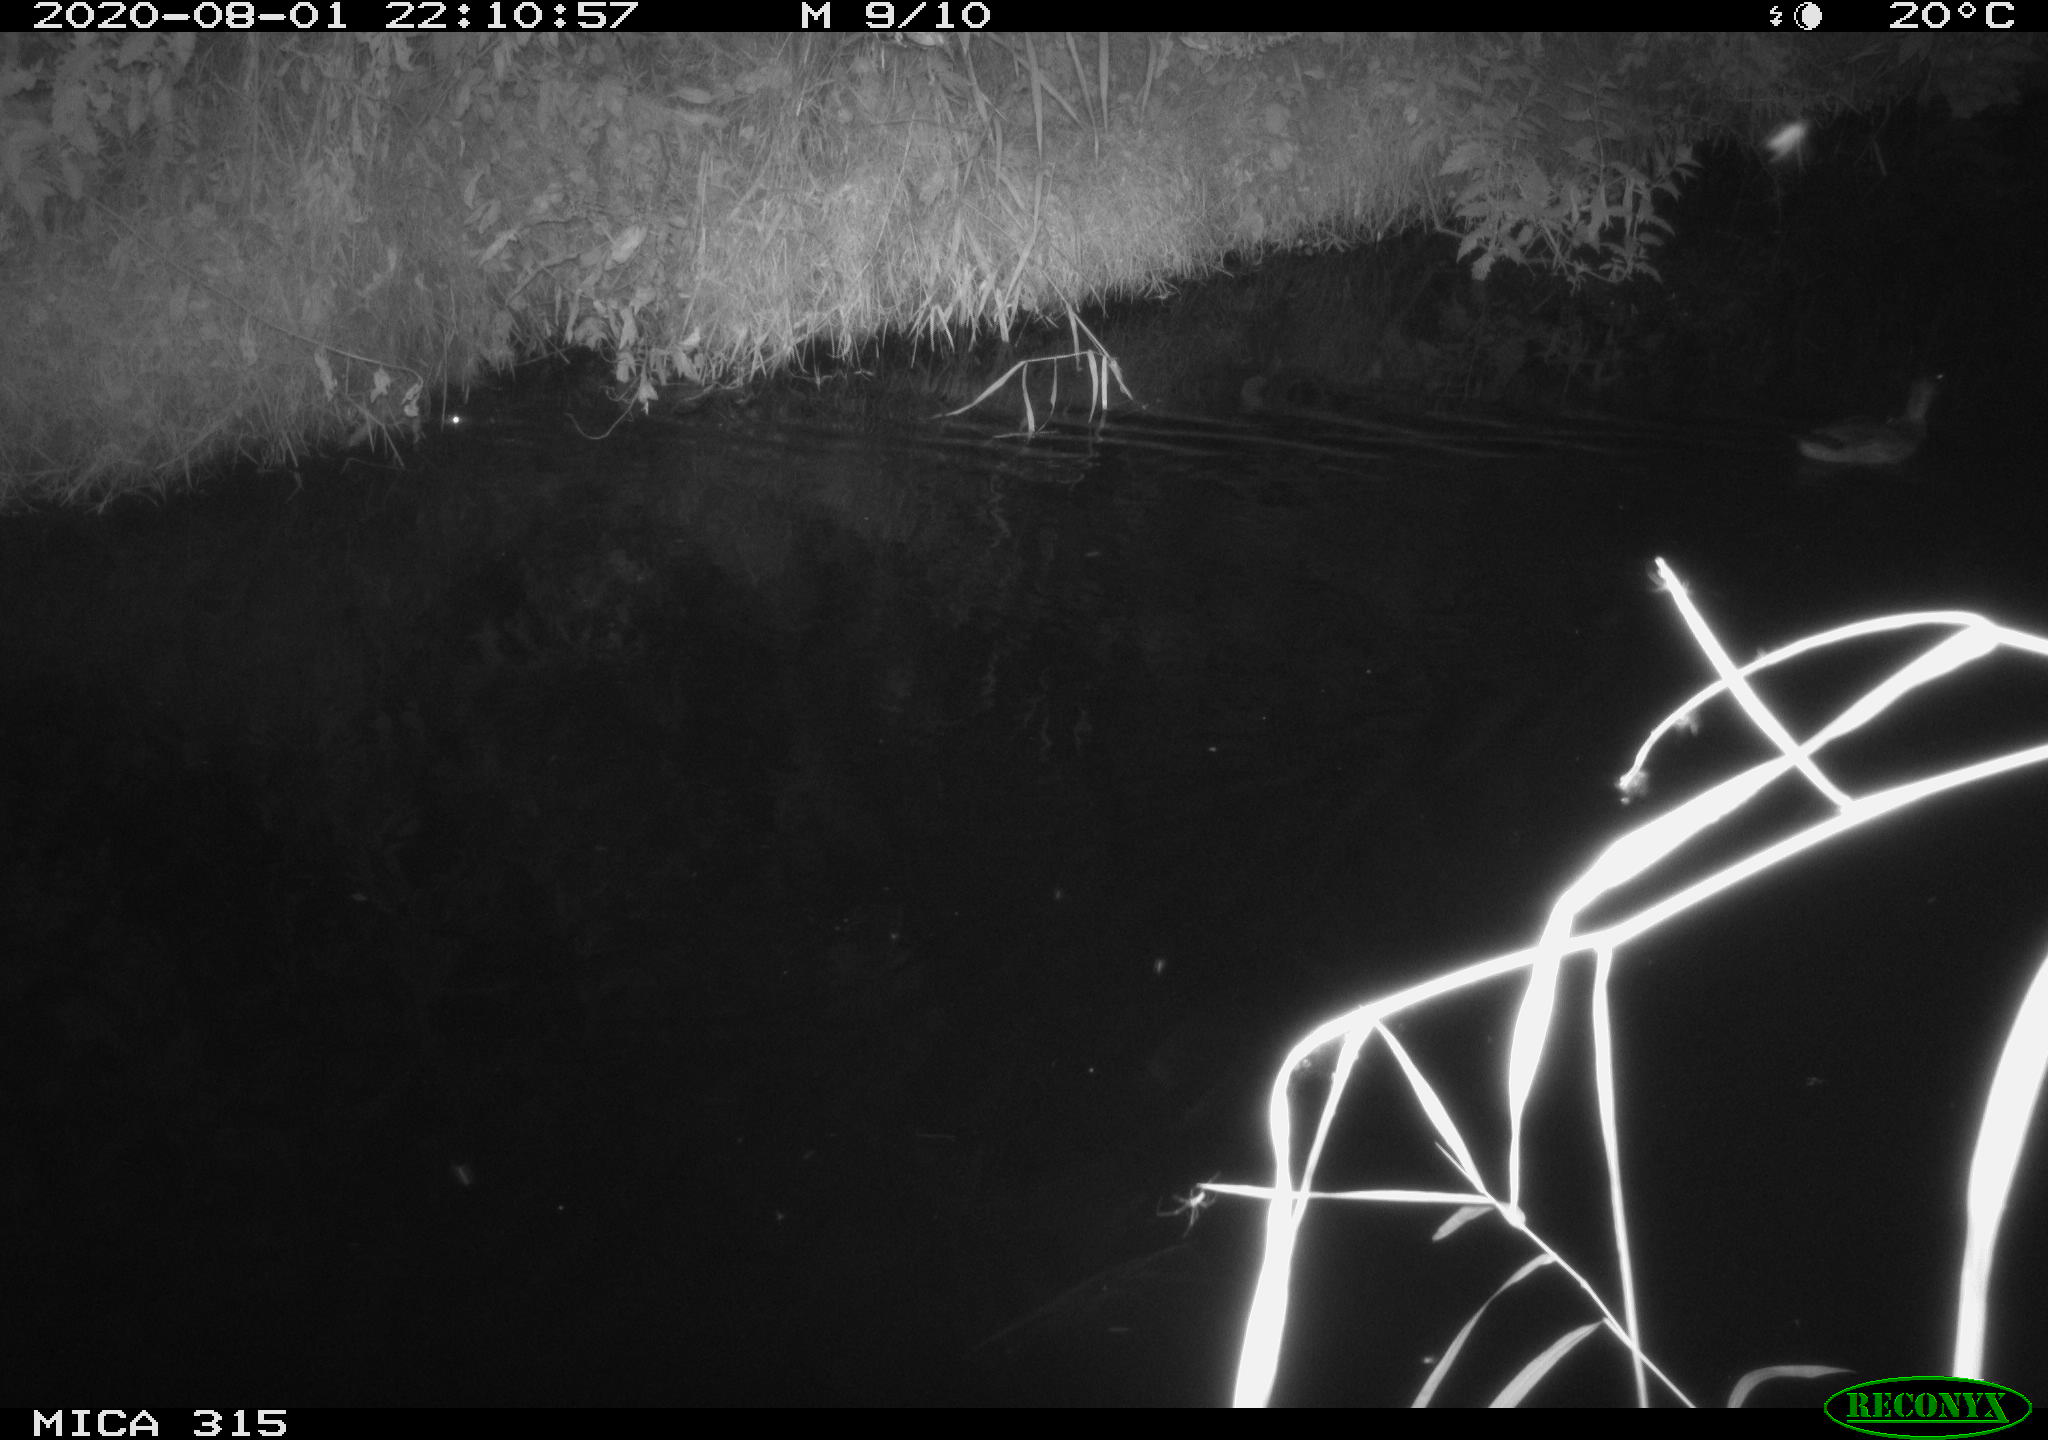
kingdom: Animalia
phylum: Chordata
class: Aves
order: Anseriformes
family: Anatidae
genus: Anas
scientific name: Anas platyrhynchos
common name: Mallard
